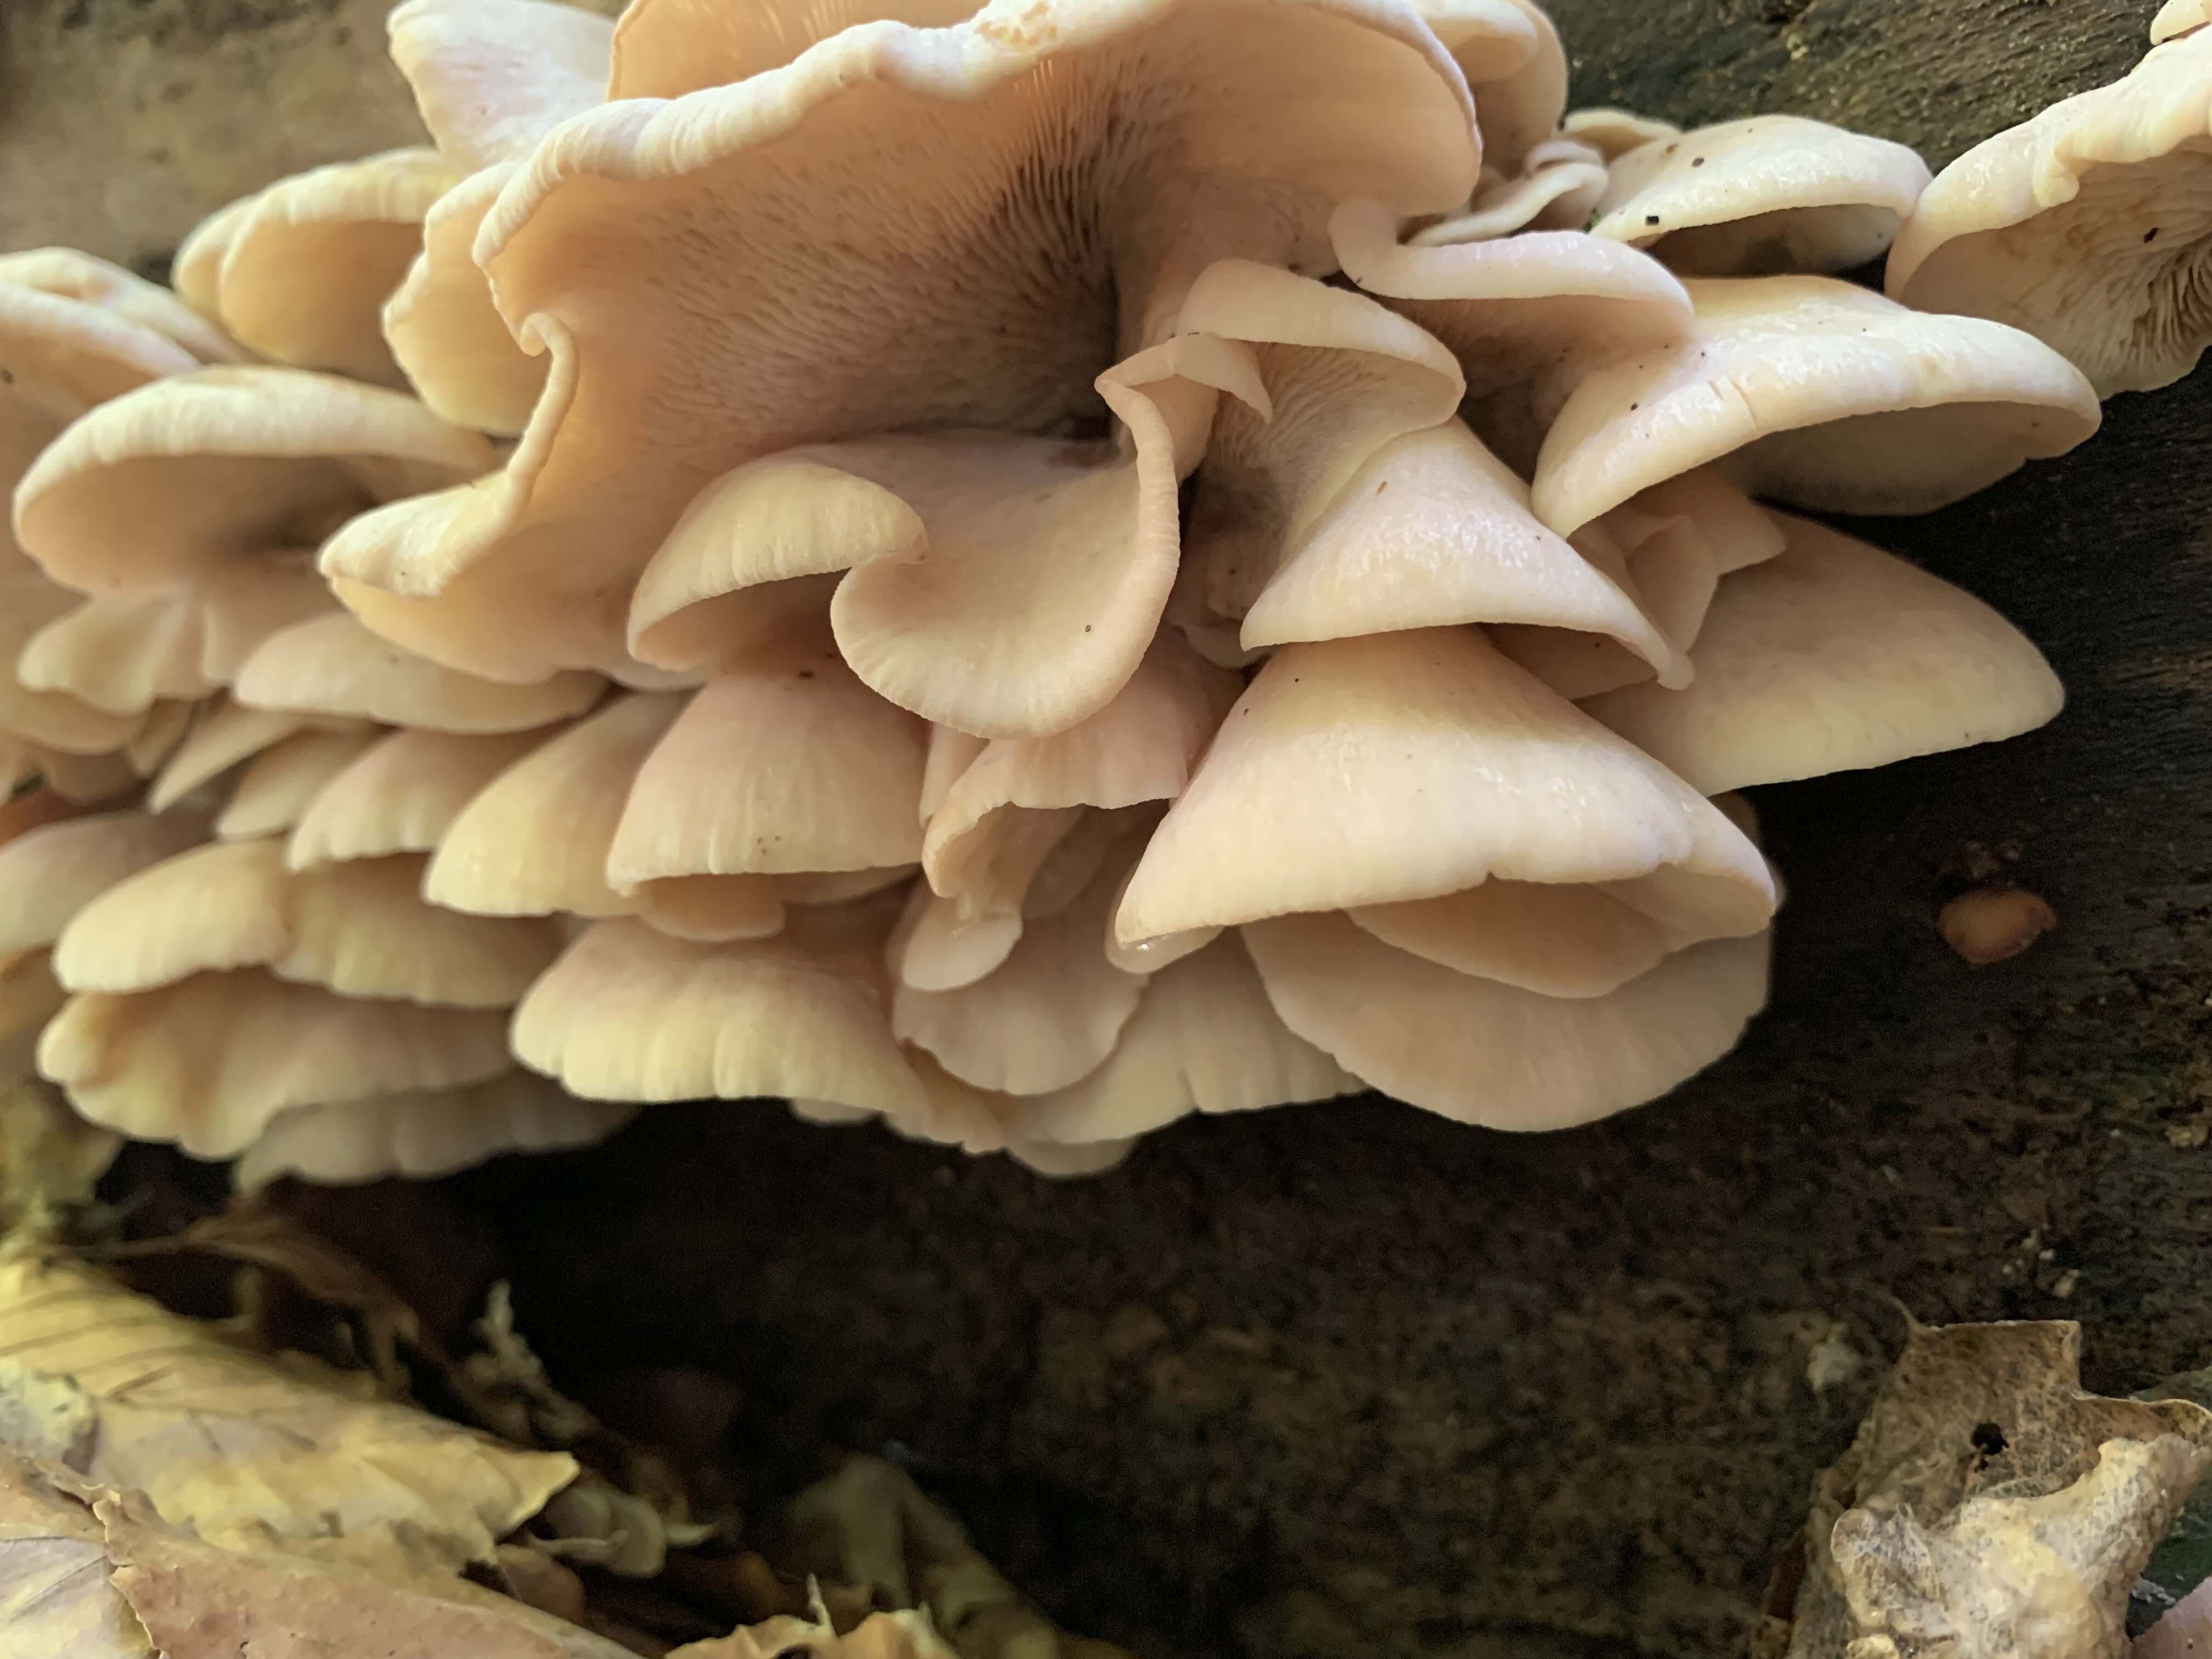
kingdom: Fungi
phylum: Basidiomycota
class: Agaricomycetes
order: Russulales
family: Auriscalpiaceae
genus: Lentinellus
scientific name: Lentinellus ursinus
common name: børstehåret savbladhat
